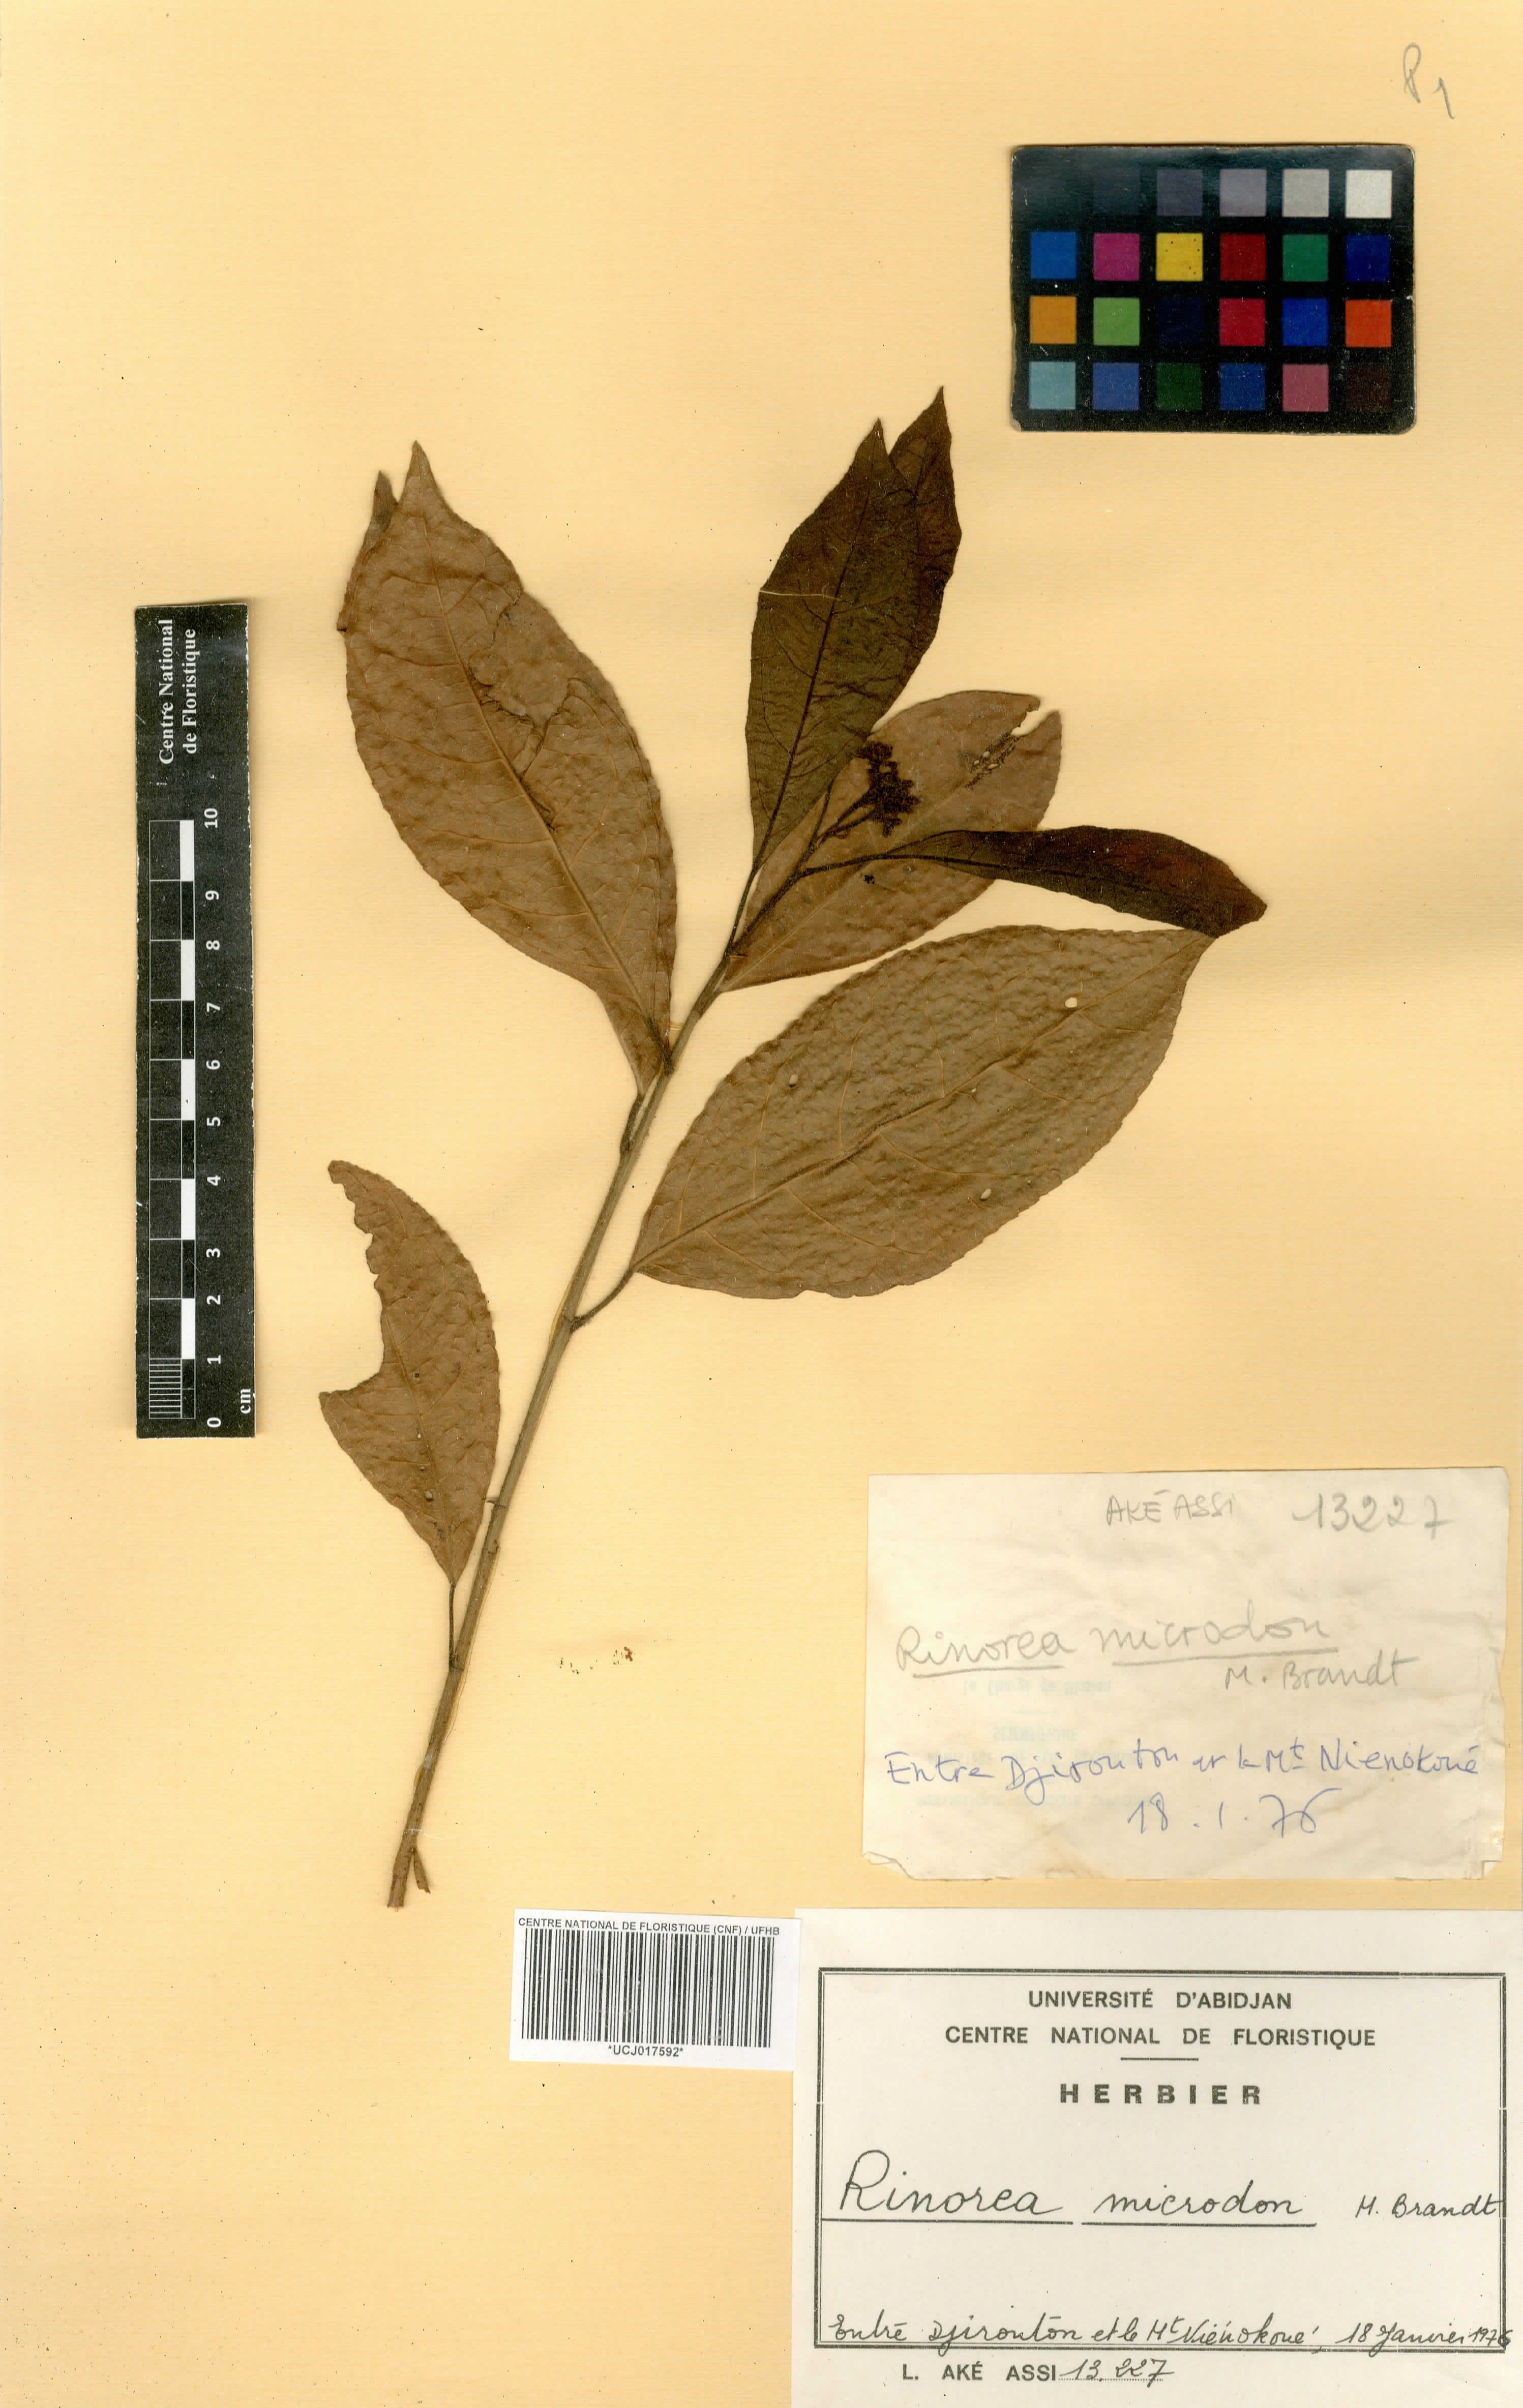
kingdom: Plantae
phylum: Tracheophyta
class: Magnoliopsida
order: Malpighiales
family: Violaceae
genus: Rinorea
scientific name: Rinorea microdon
